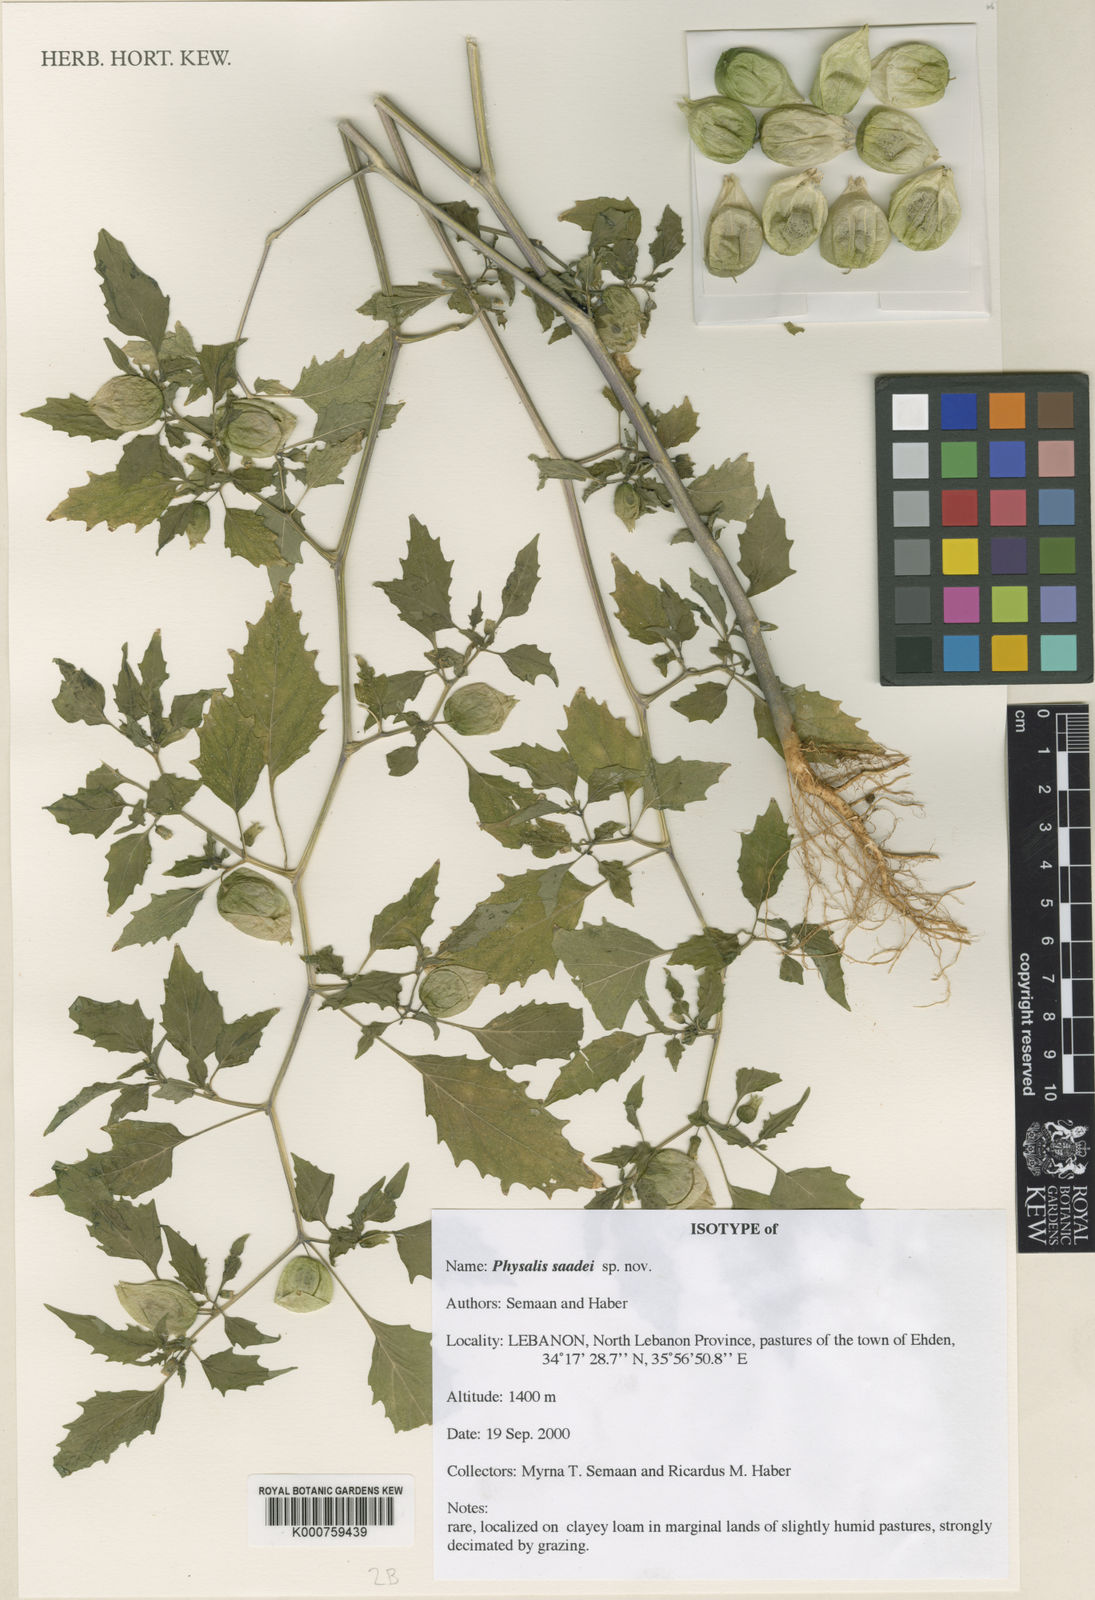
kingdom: Plantae
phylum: Tracheophyta
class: Magnoliopsida
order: Solanales
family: Solanaceae
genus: Physalis
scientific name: Physalis
